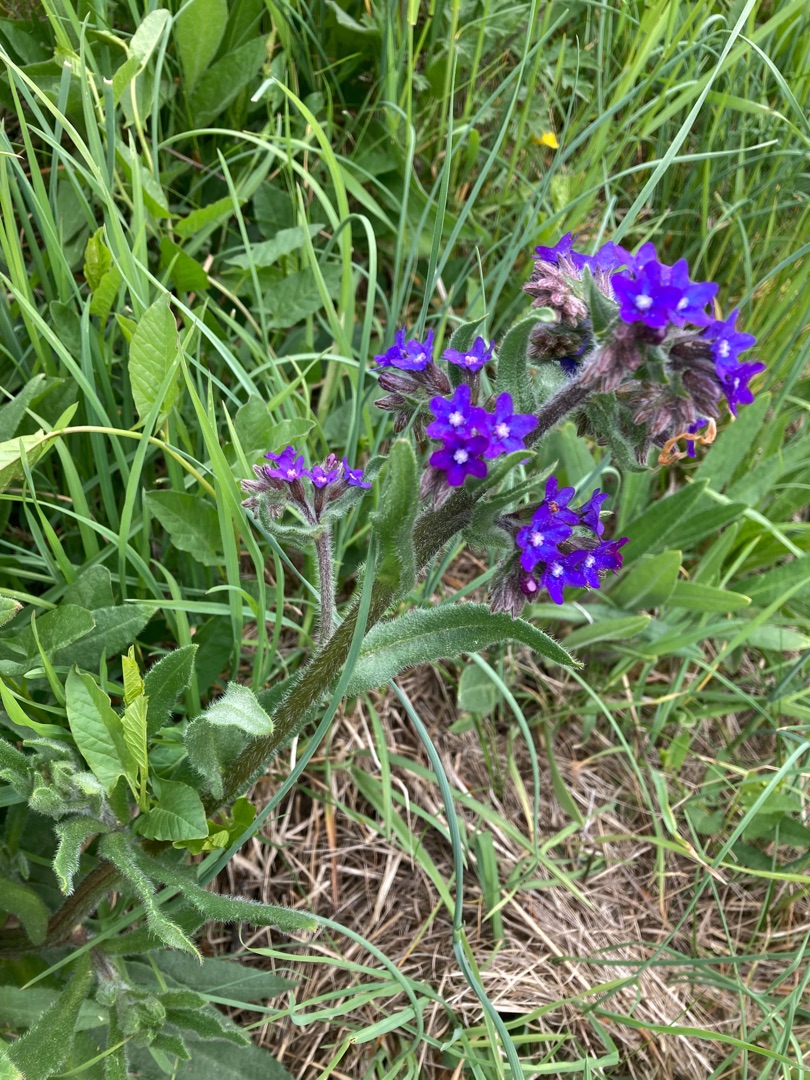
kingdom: Plantae
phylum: Tracheophyta
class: Magnoliopsida
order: Boraginales
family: Boraginaceae
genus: Anchusa
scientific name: Anchusa officinalis
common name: Læge-oksetunge
